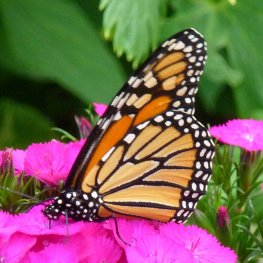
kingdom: Animalia
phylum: Arthropoda
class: Insecta
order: Lepidoptera
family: Nymphalidae
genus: Danaus
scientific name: Danaus plexippus
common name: Monarch
